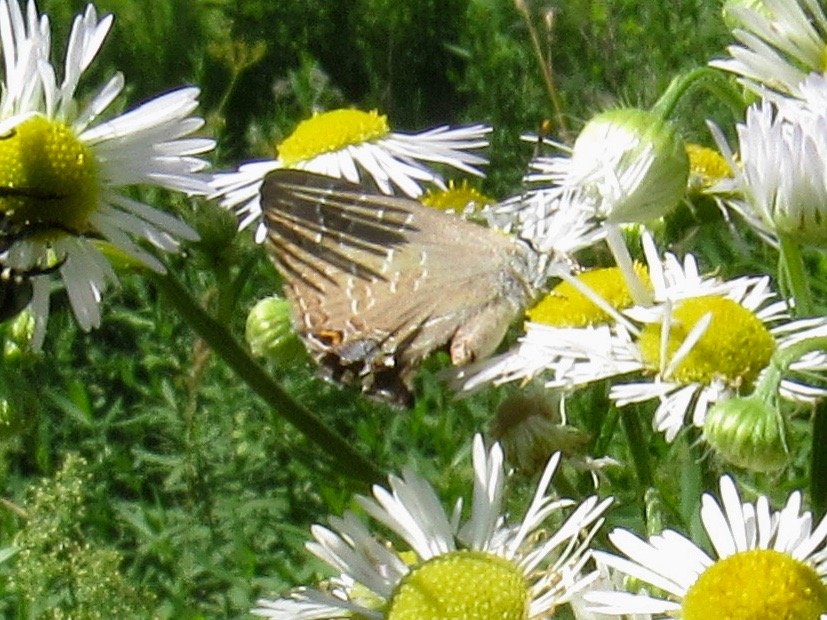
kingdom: Animalia
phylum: Arthropoda
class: Insecta
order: Lepidoptera
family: Lycaenidae
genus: Strymon
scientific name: Strymon caryaevorus
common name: Hickory Hairstreak
